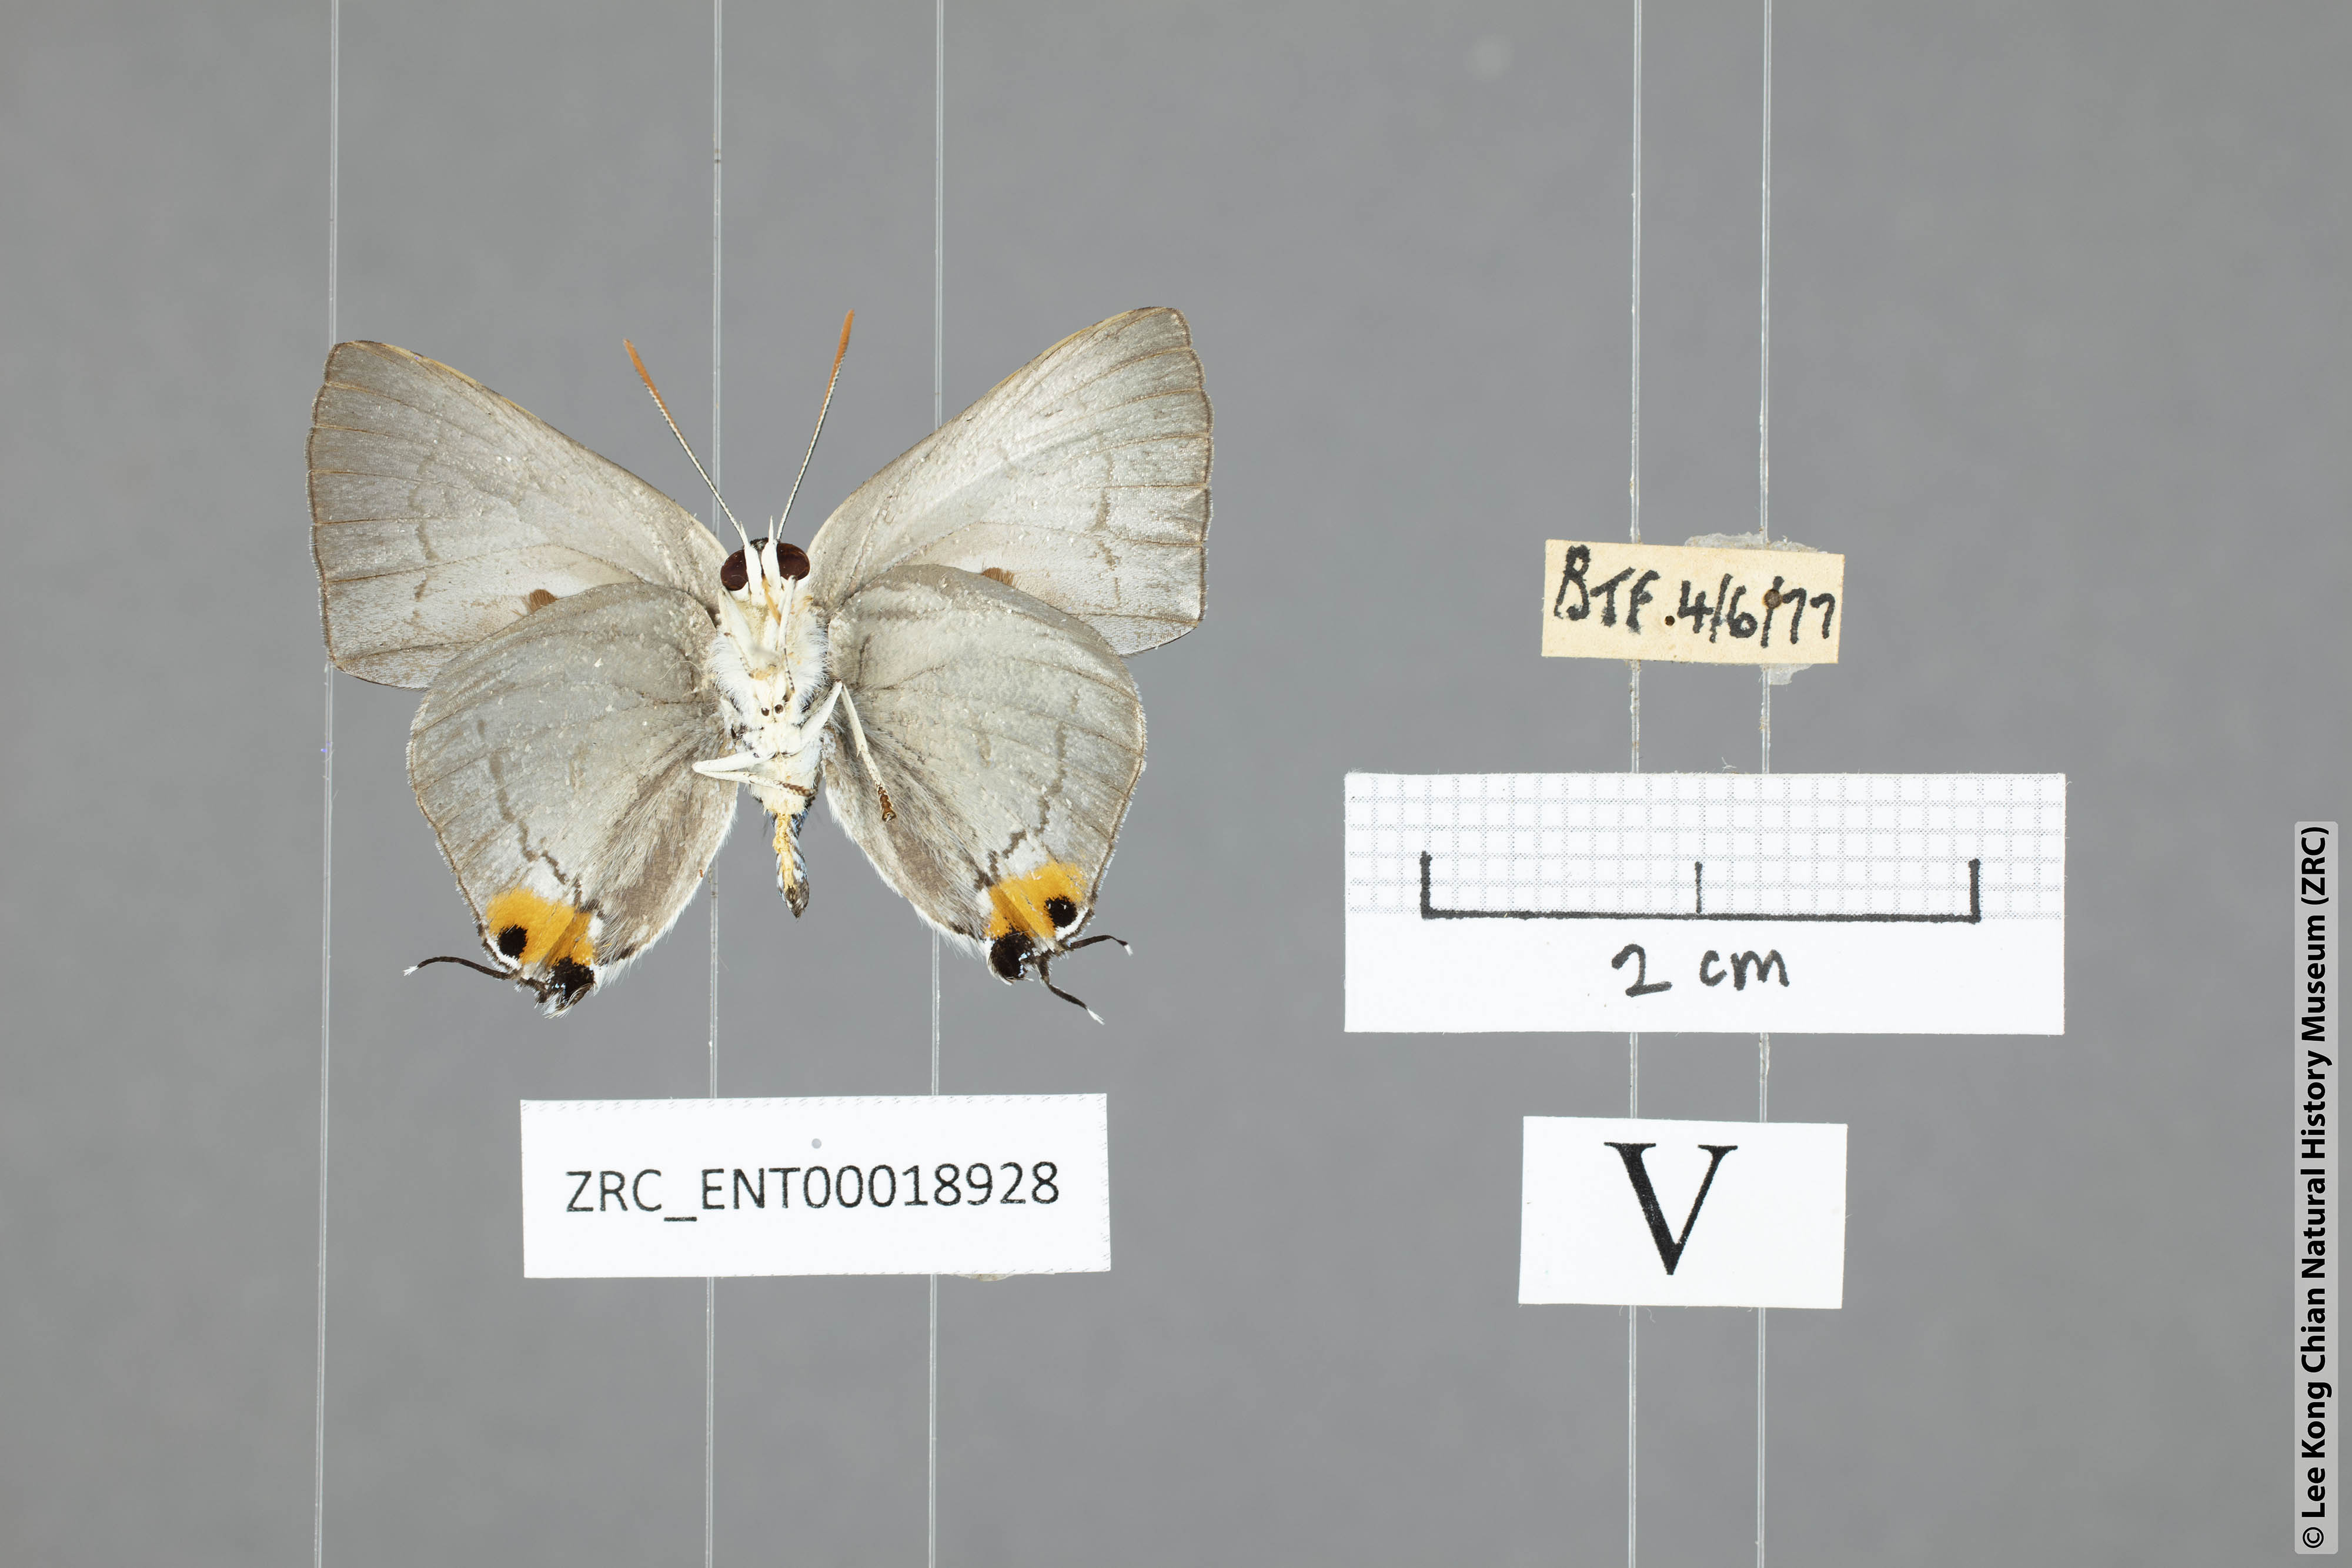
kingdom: Animalia
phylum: Arthropoda
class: Insecta
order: Lepidoptera
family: Lycaenidae
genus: Ancema
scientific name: Ancema blanka
